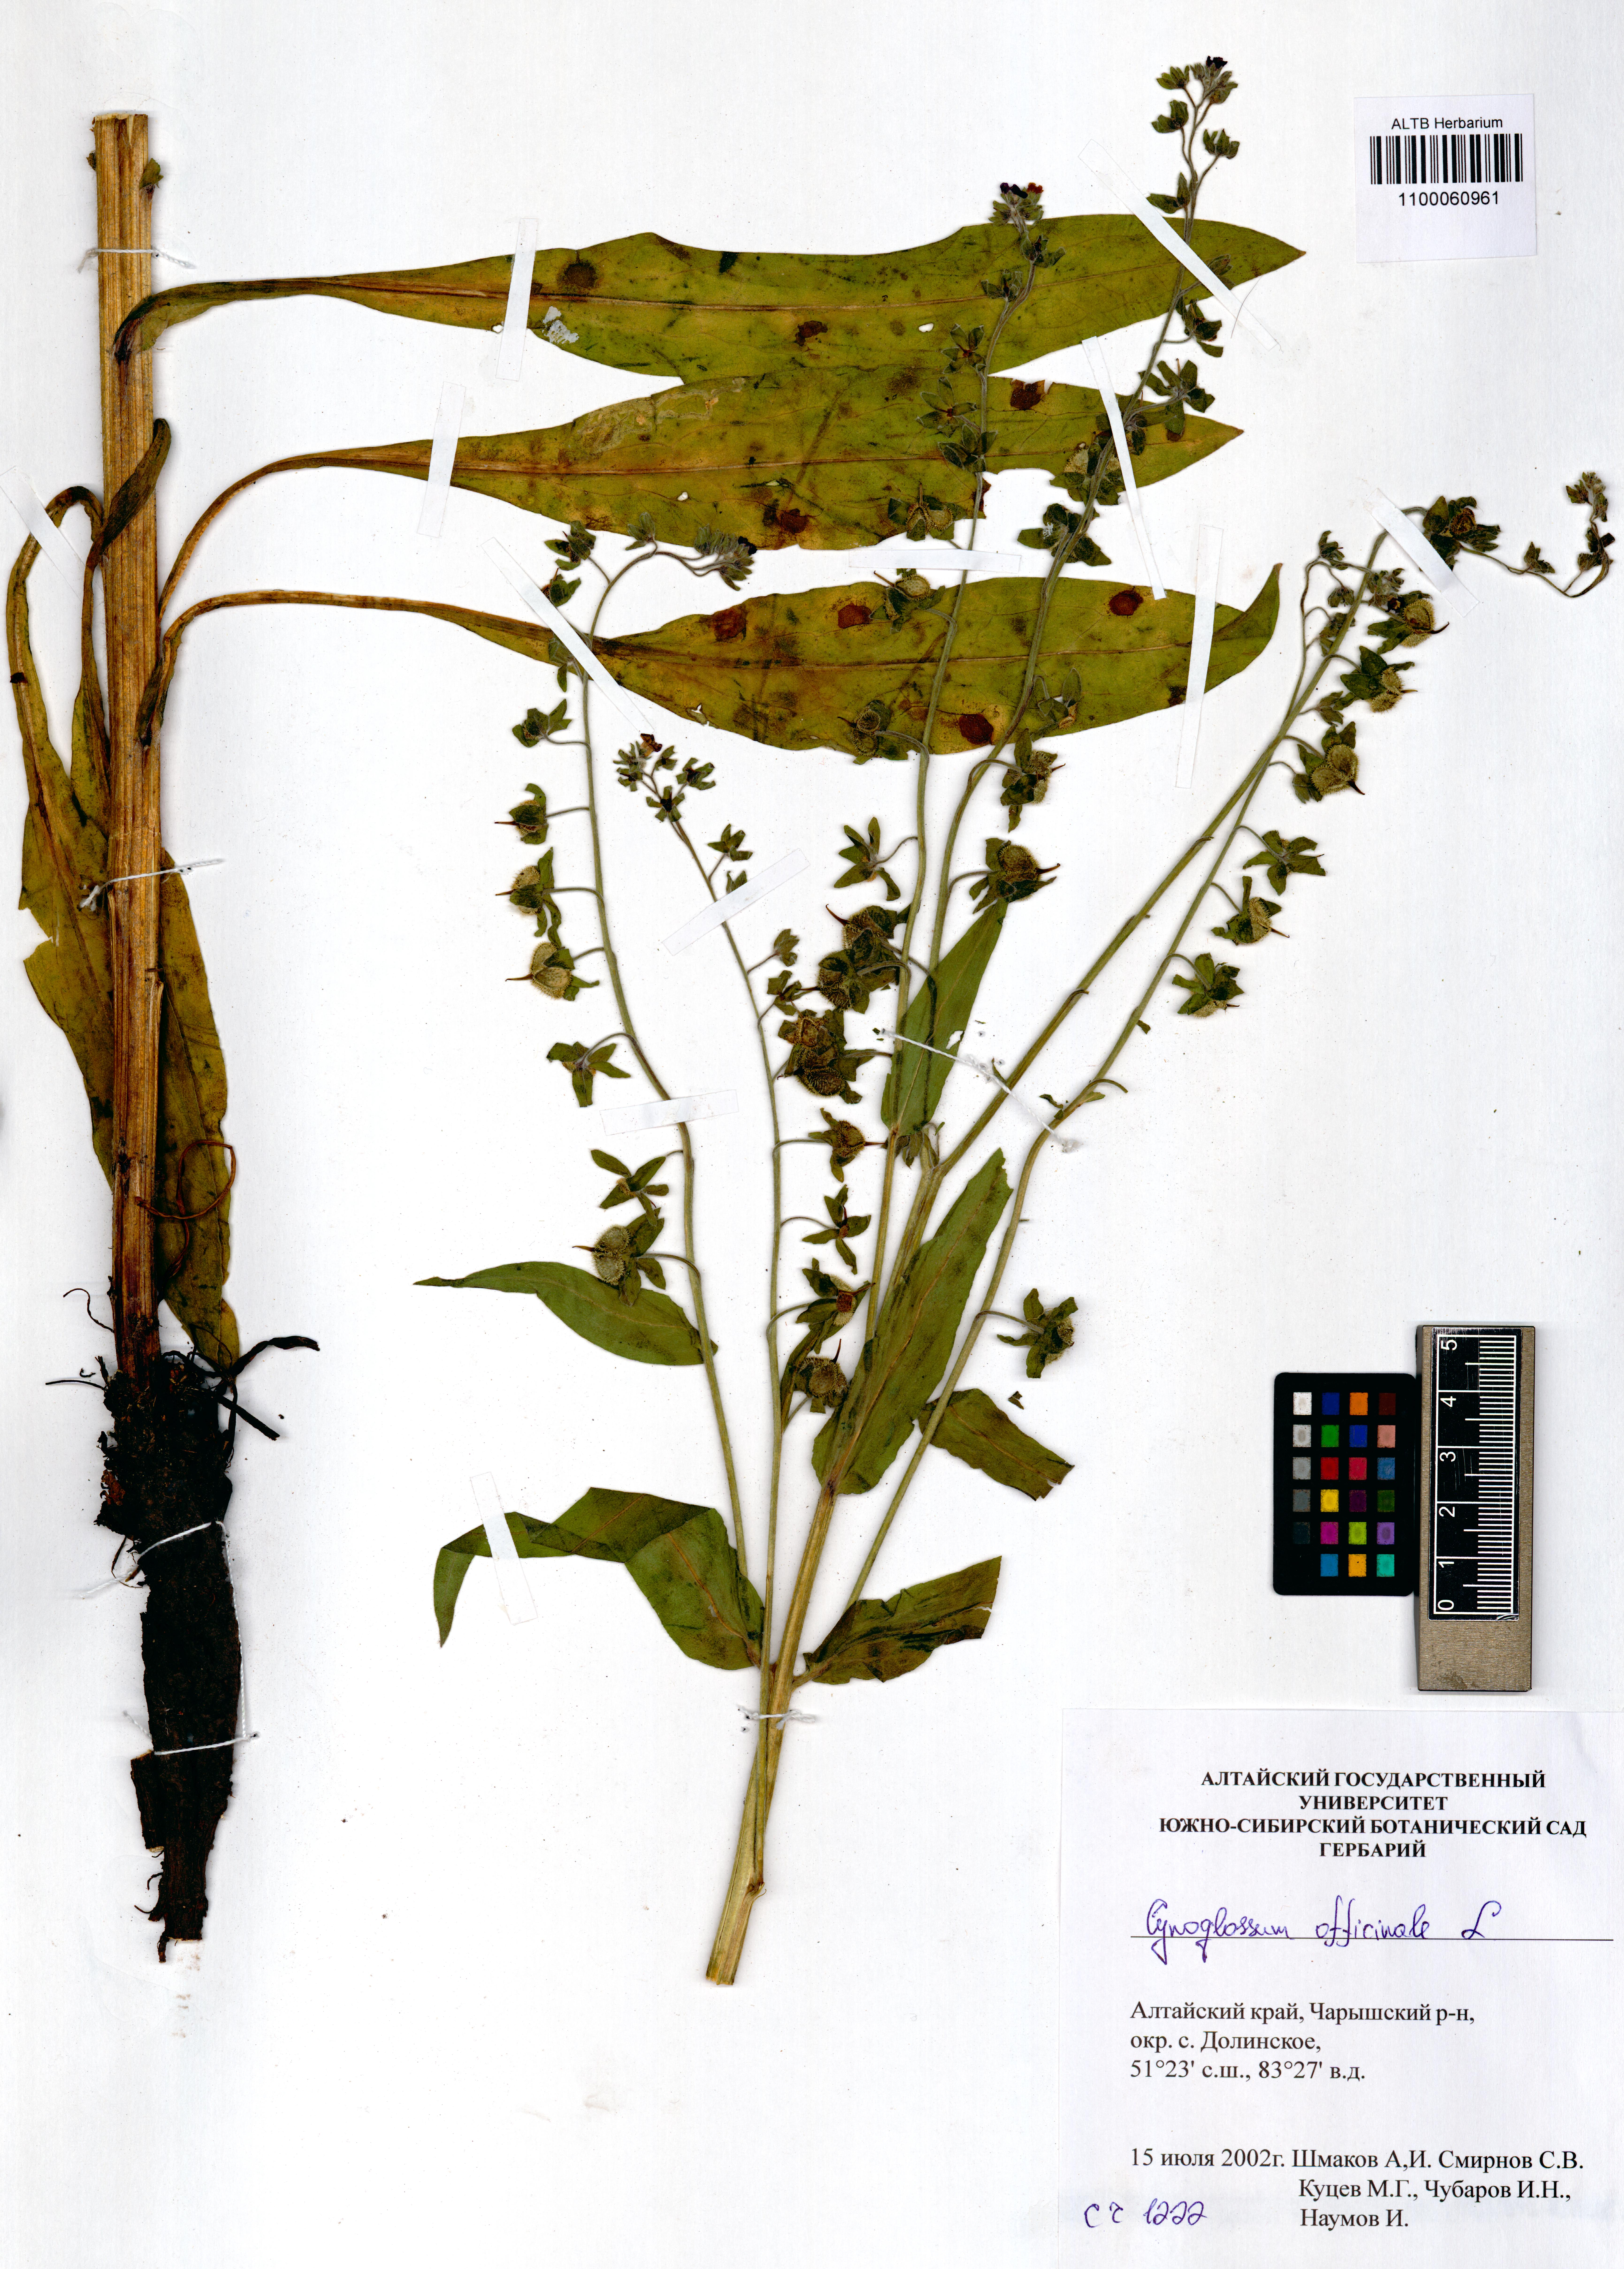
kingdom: Plantae
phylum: Tracheophyta
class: Magnoliopsida
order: Boraginales
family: Boraginaceae
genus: Cynoglossum
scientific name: Cynoglossum officinale
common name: Hound's-tongue
